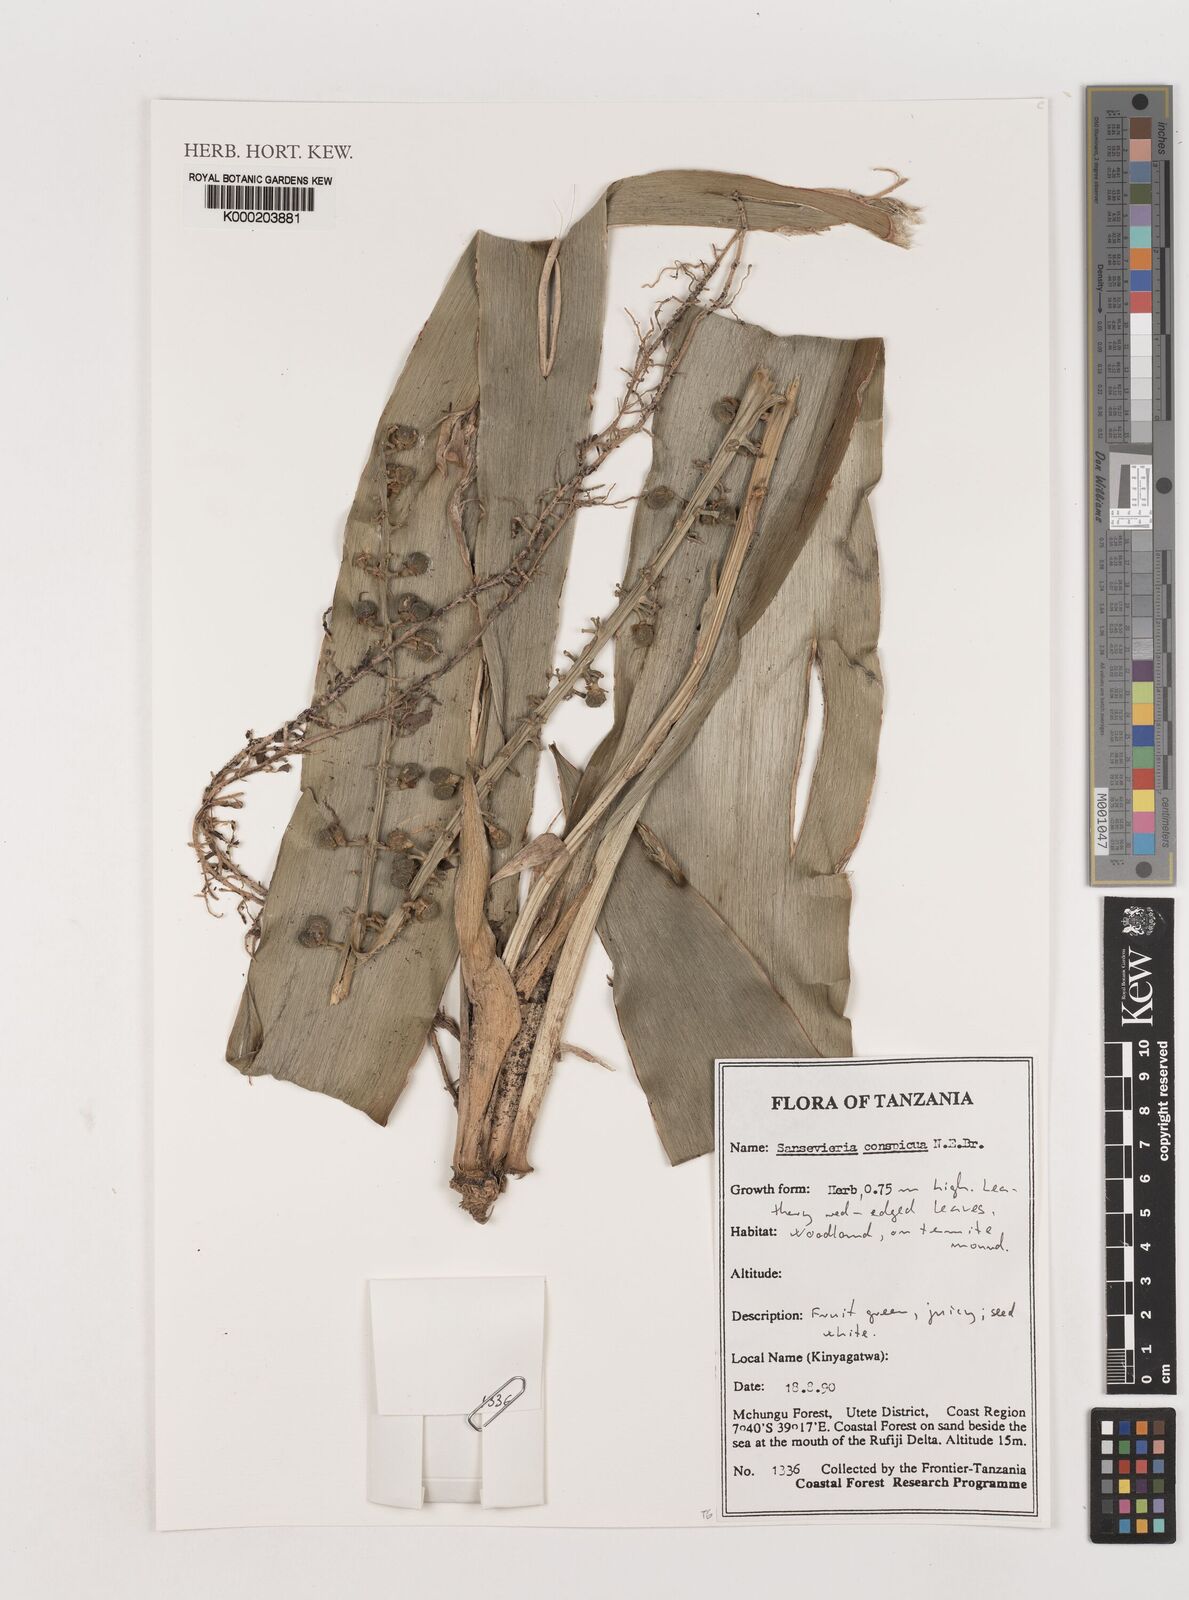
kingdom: Plantae
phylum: Tracheophyta
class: Liliopsida
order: Asparagales
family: Asparagaceae
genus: Dracaena
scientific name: Dracaena conspicua
